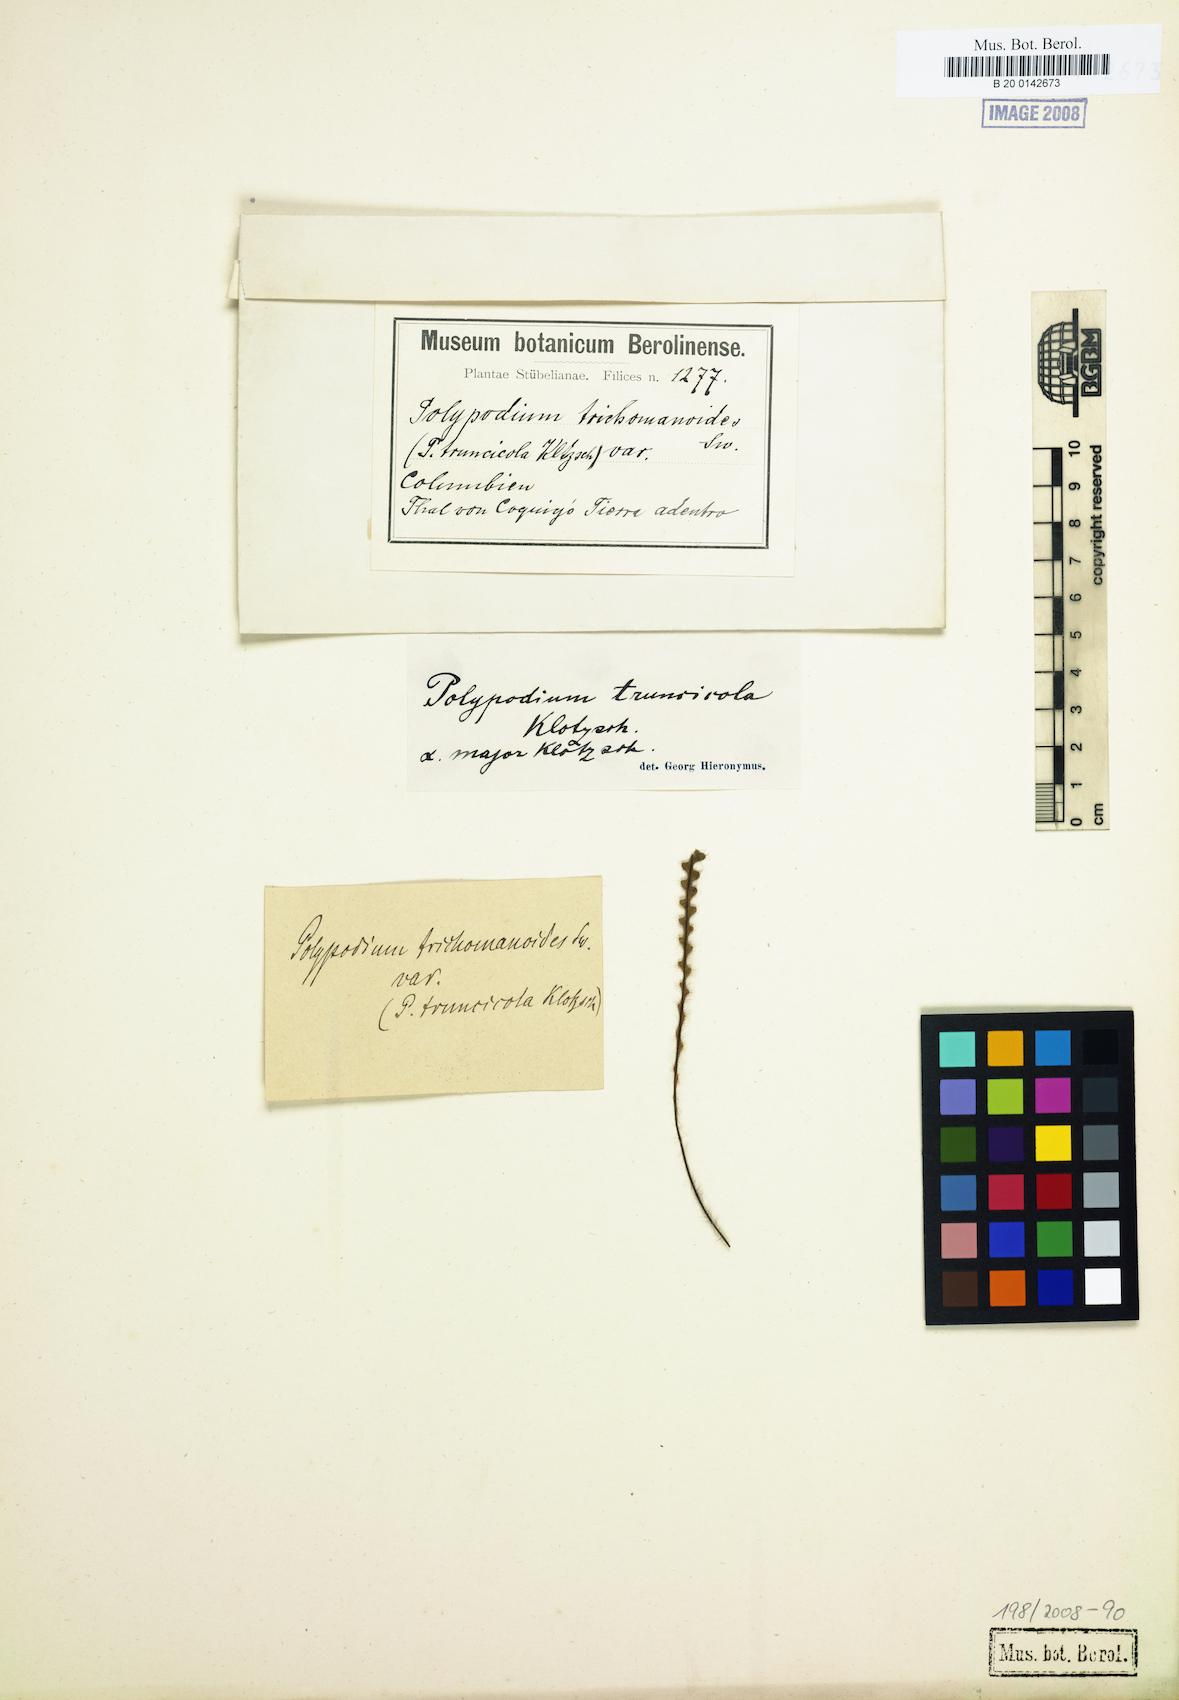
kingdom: Plantae
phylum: Tracheophyta
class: Polypodiopsida
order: Polypodiales
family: Polypodiaceae
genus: Moranopteris
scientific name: Moranopteris truncicola
